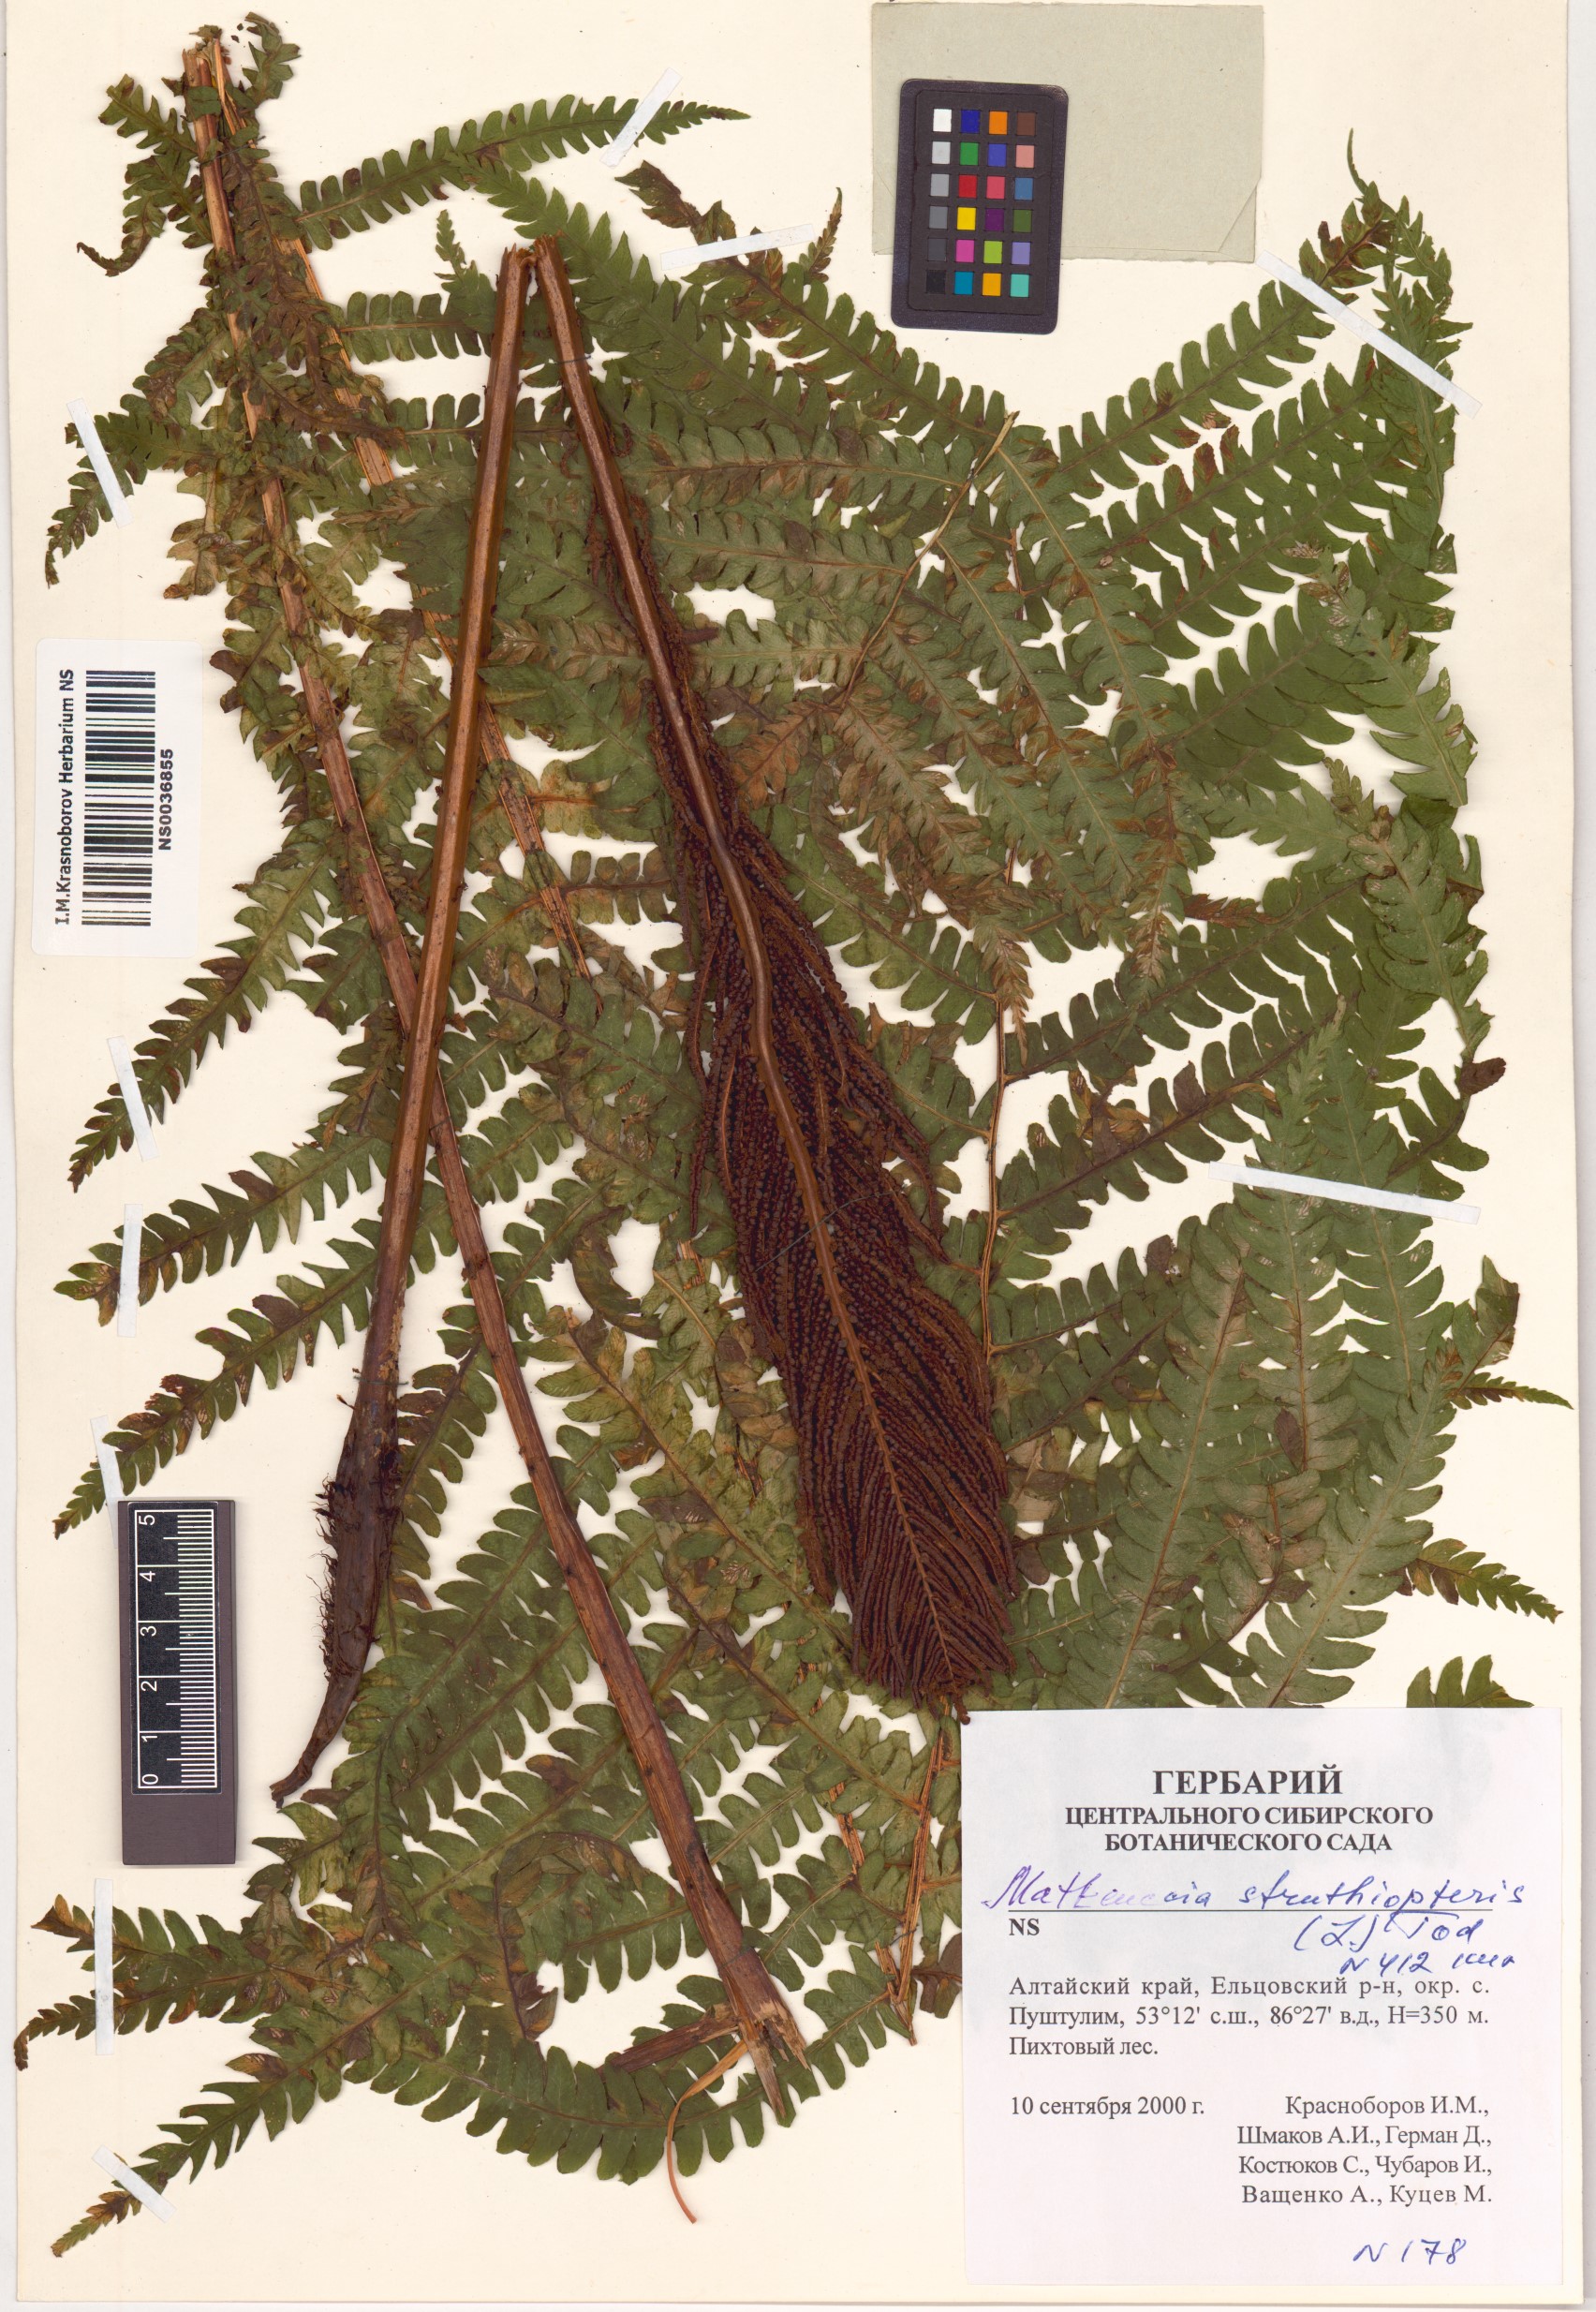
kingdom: Plantae
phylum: Tracheophyta
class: Polypodiopsida
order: Polypodiales
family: Onocleaceae
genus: Matteuccia
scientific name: Matteuccia struthiopteris
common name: Ostrich fern
